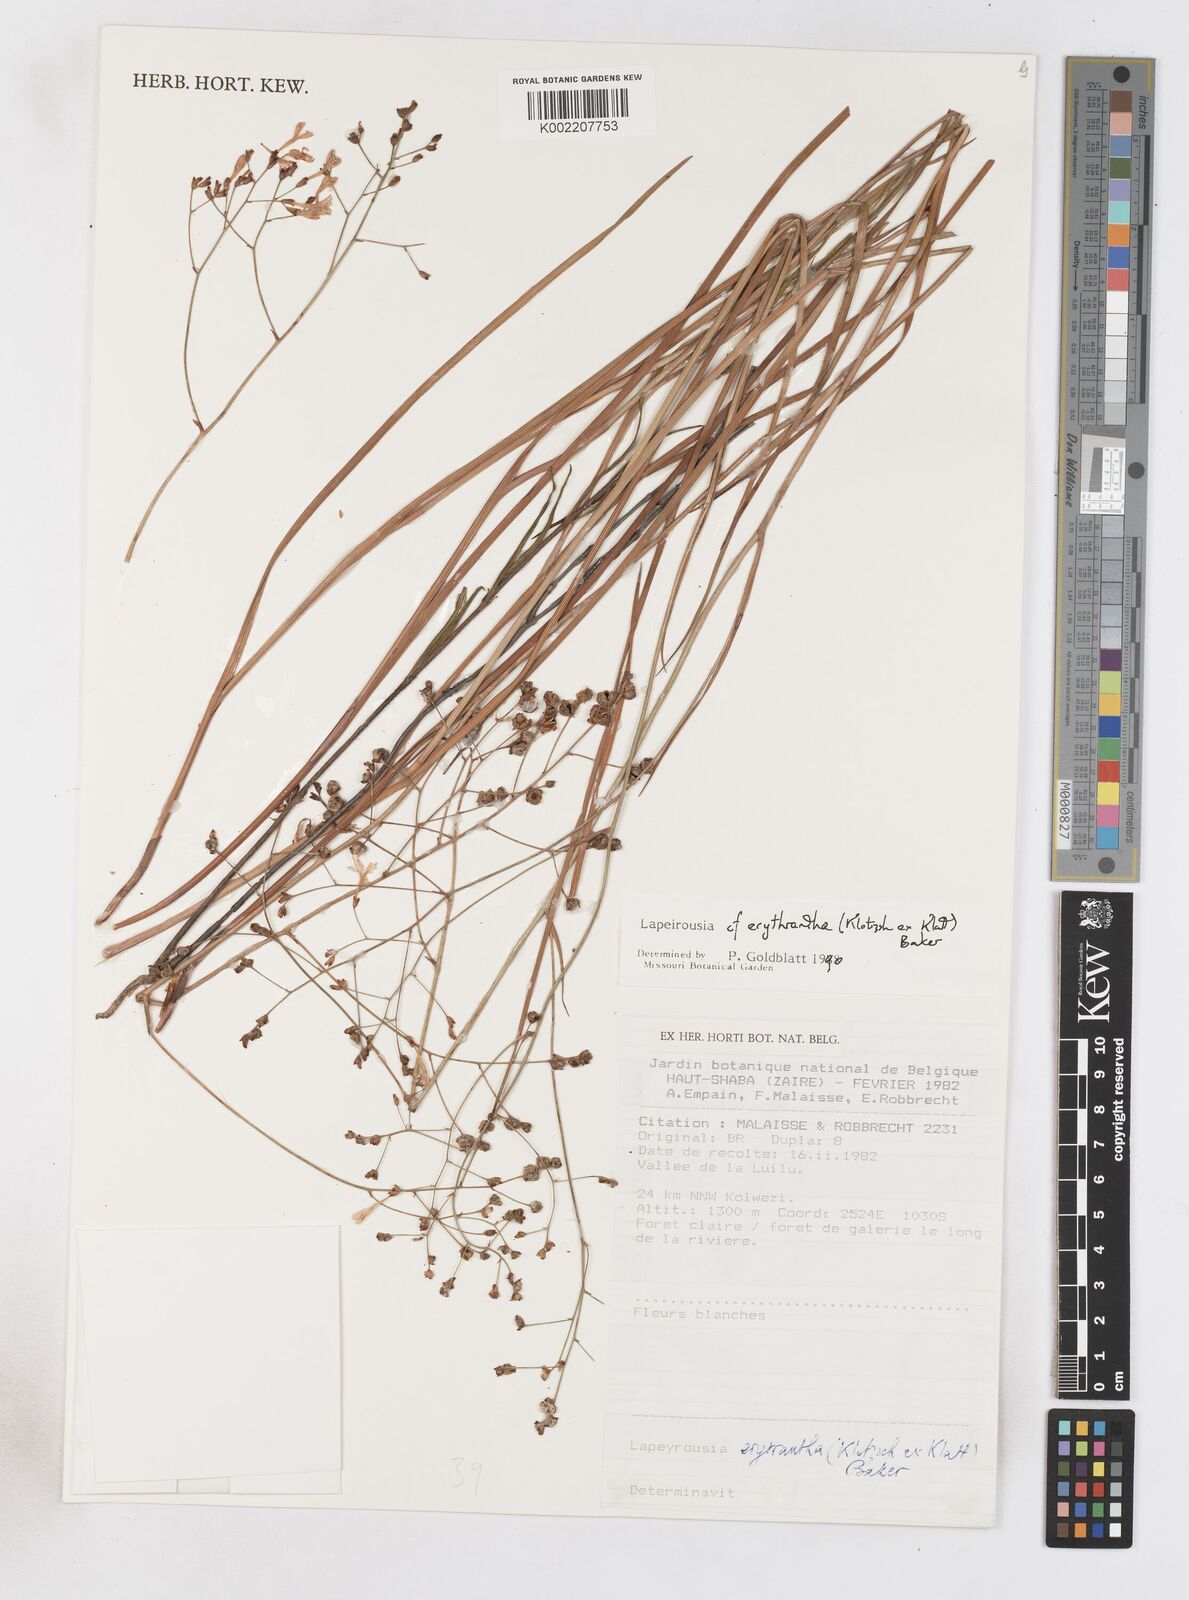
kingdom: Plantae
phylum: Tracheophyta
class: Liliopsida
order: Asparagales
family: Iridaceae
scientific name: Iridaceae
